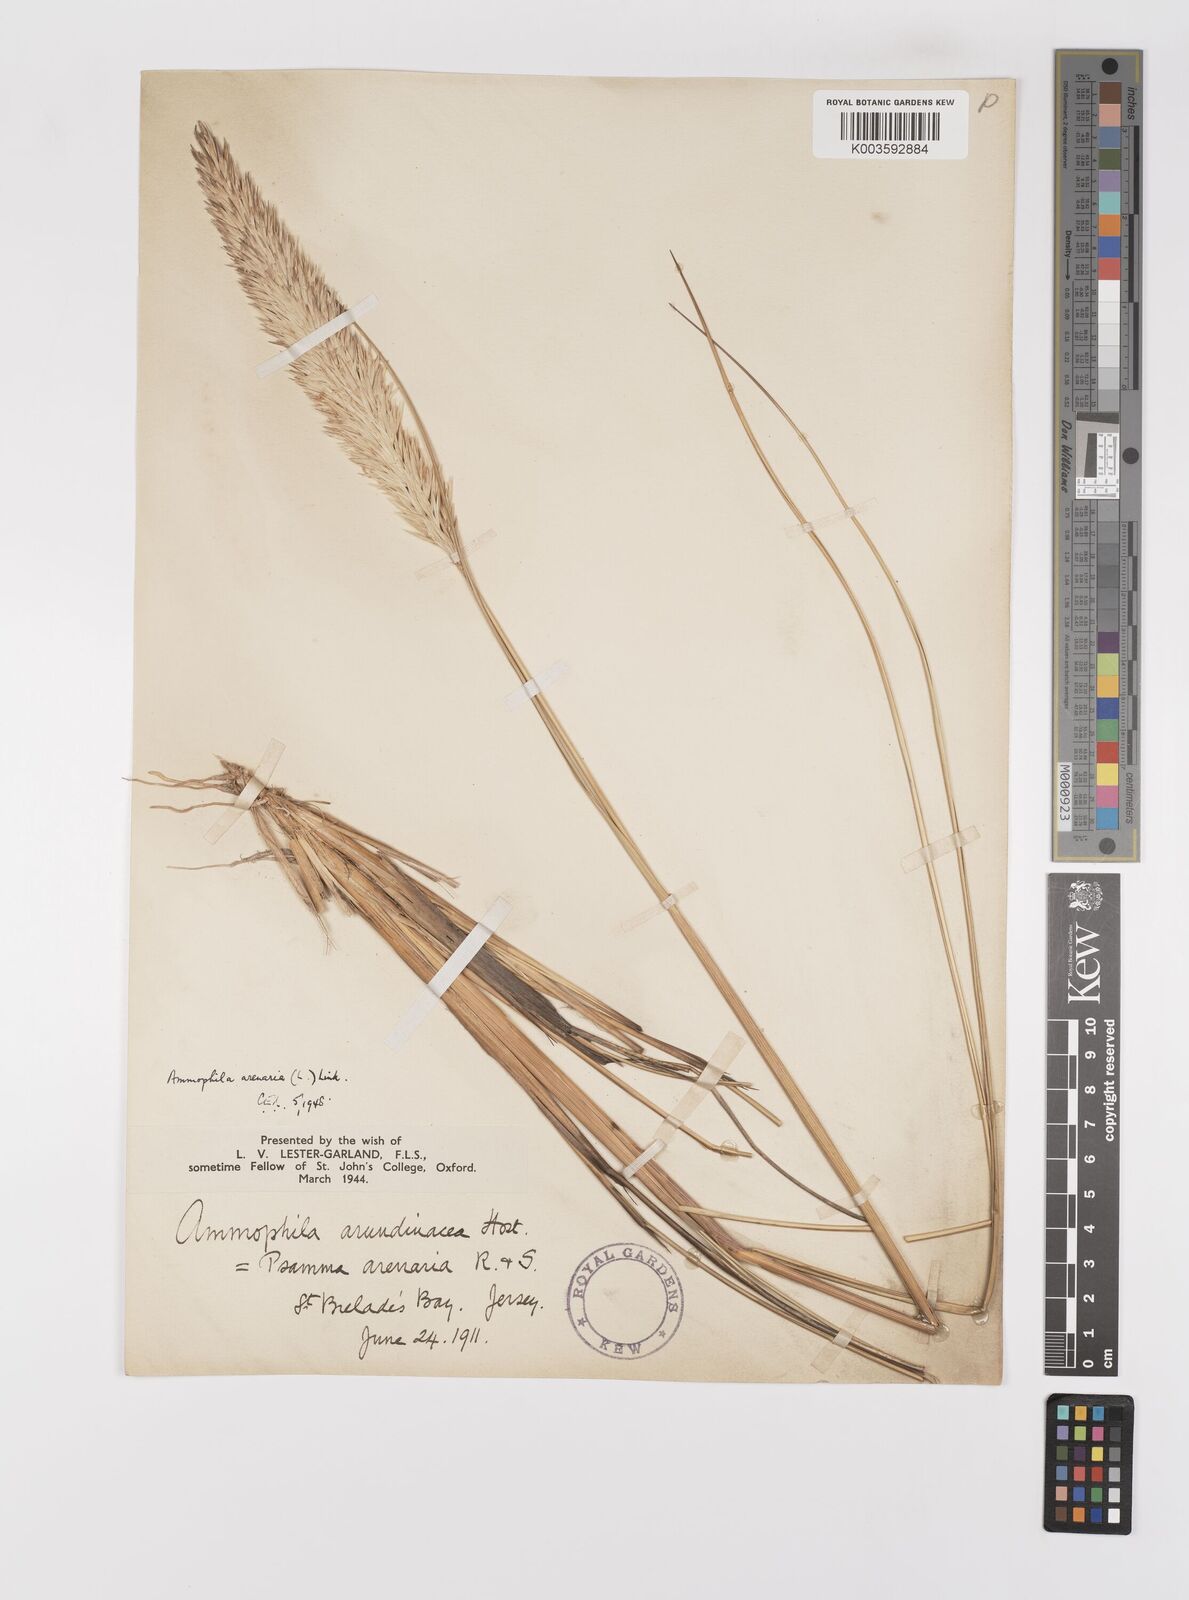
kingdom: Plantae
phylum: Tracheophyta
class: Liliopsida
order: Poales
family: Poaceae
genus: Calamagrostis
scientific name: Calamagrostis arenaria
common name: European beachgrass
